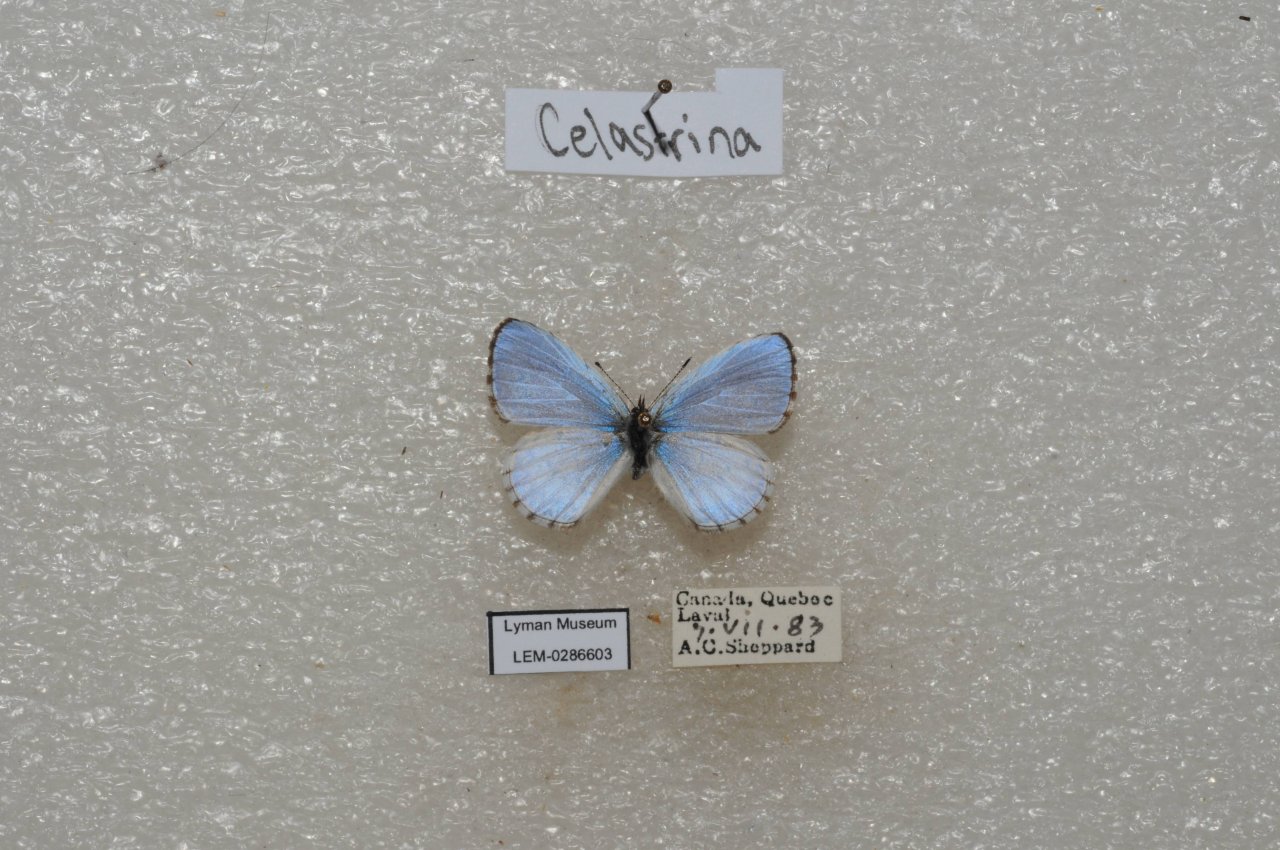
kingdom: Animalia
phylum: Arthropoda
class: Insecta
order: Lepidoptera
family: Lycaenidae
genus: Celastrina
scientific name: Celastrina lucia
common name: Northern Spring Azure
